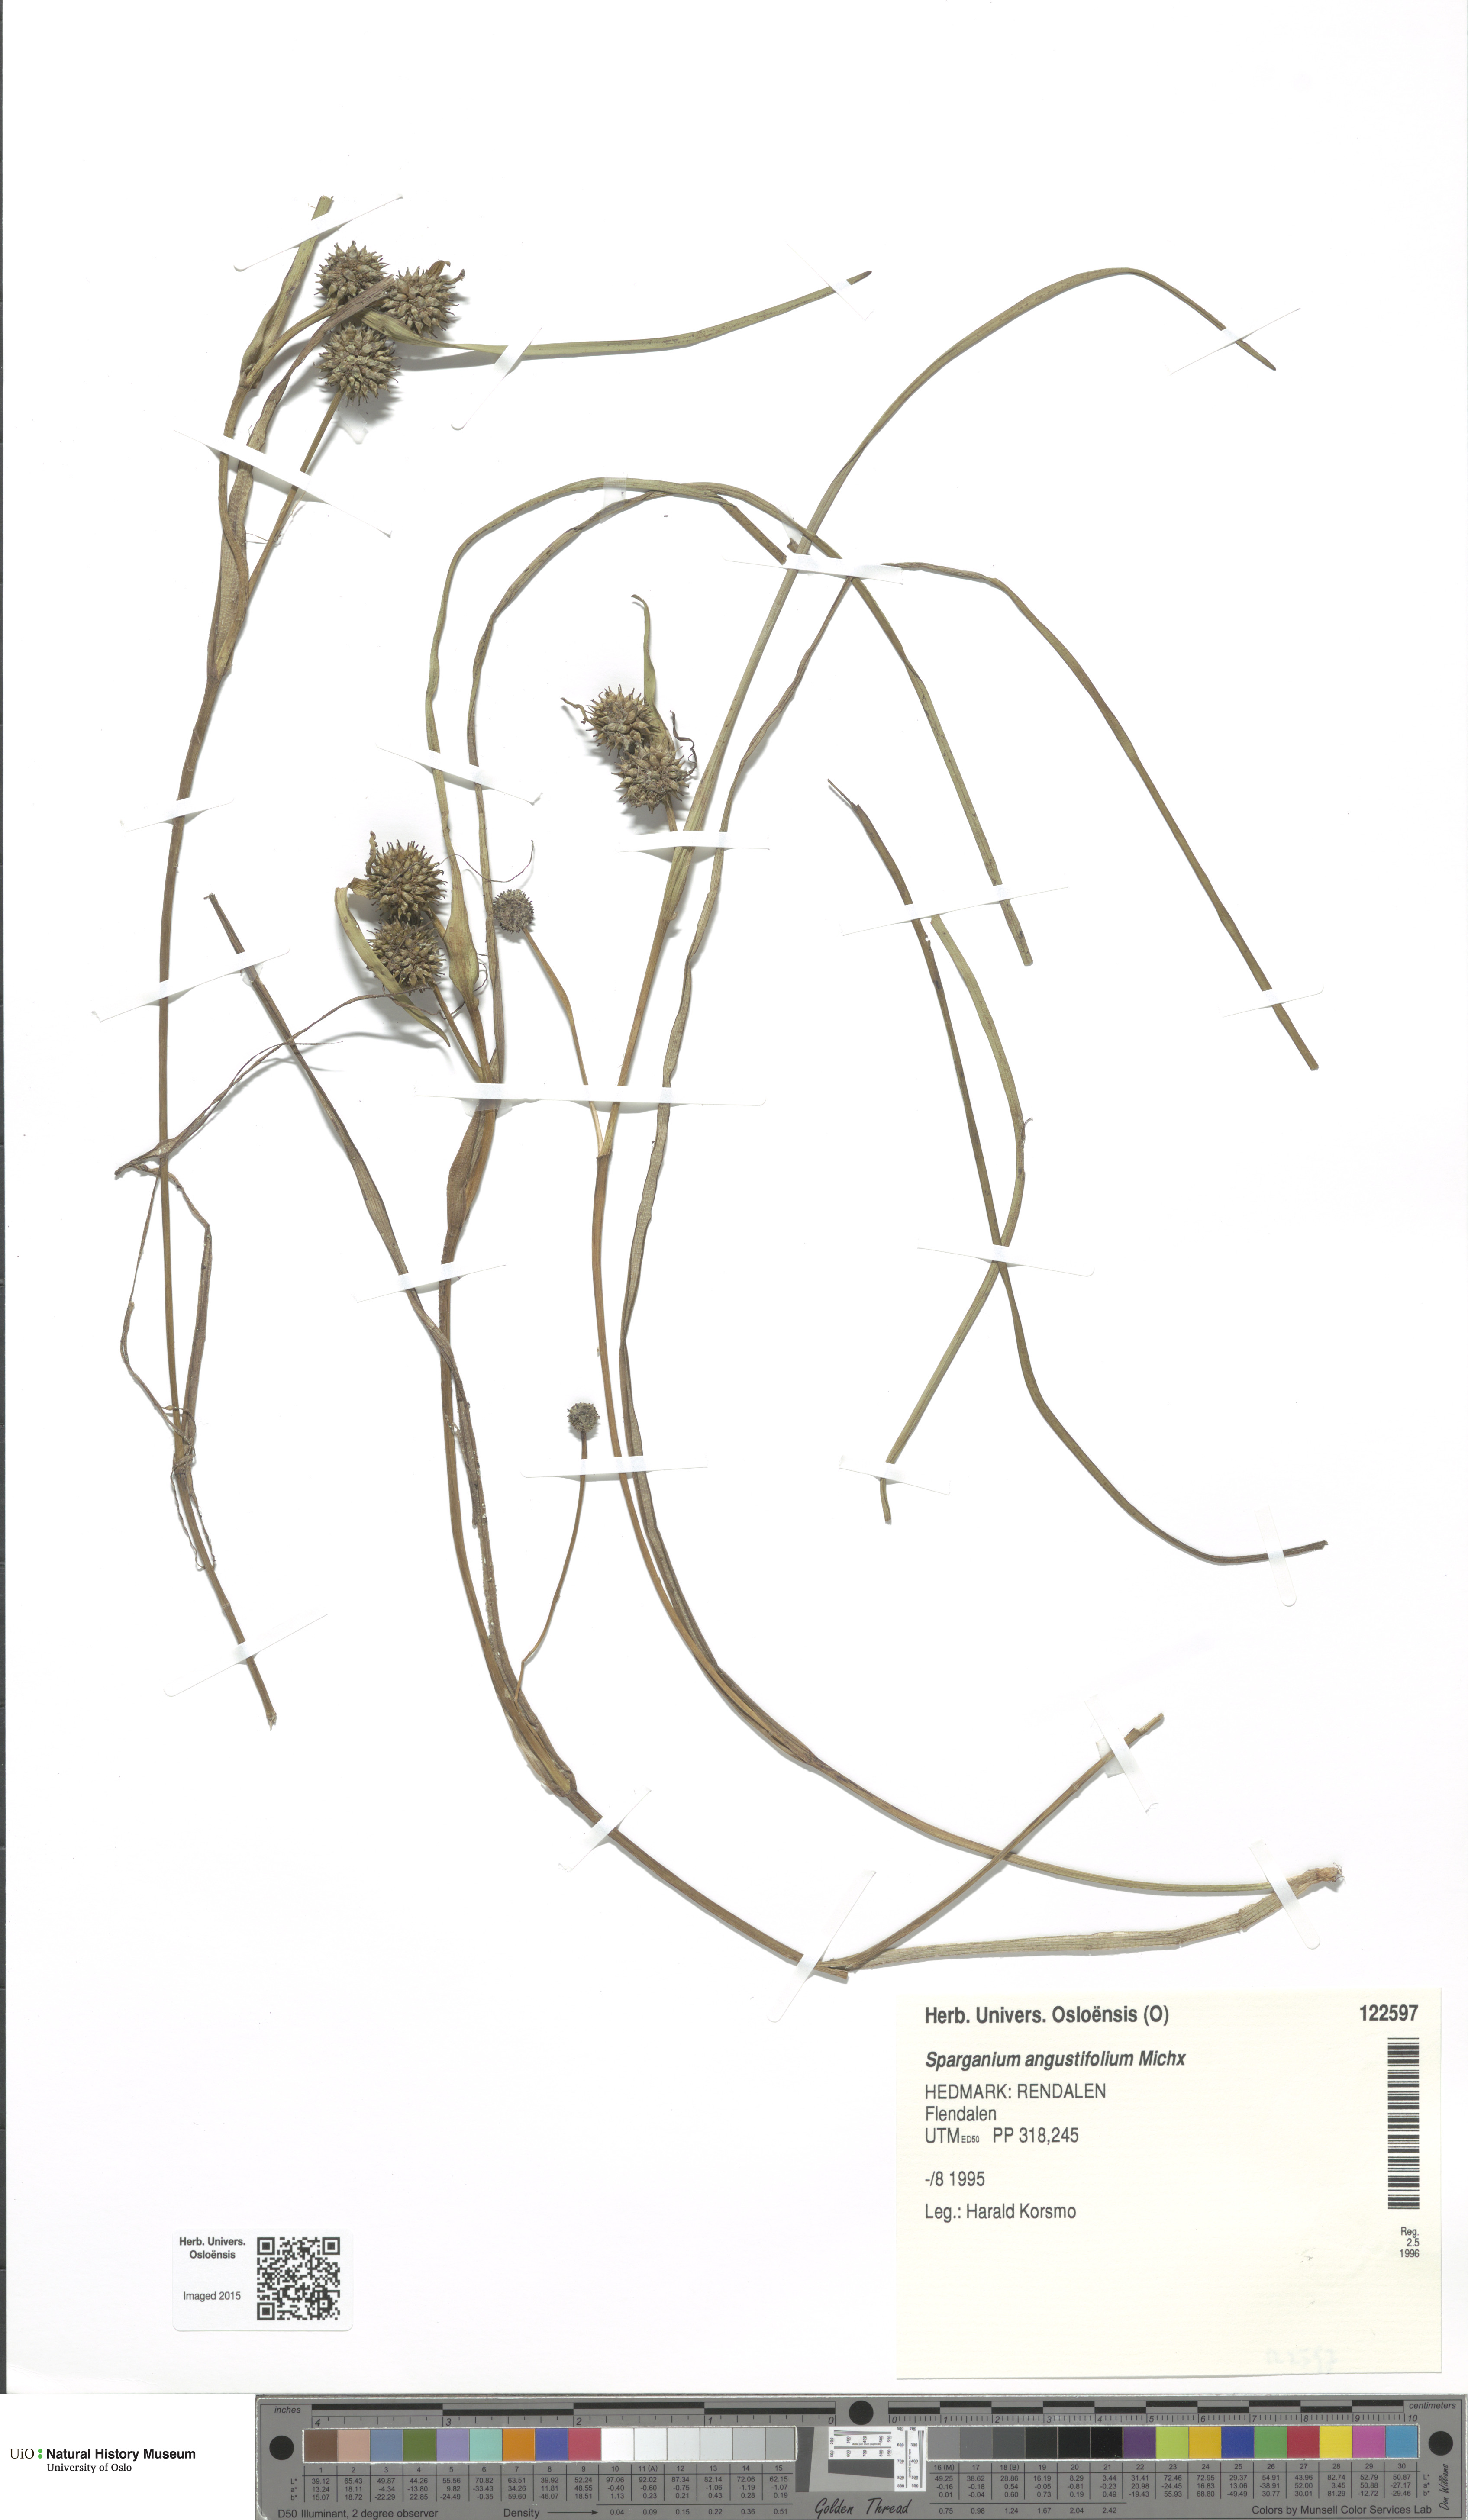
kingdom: Plantae
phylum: Tracheophyta
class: Liliopsida
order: Poales
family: Typhaceae
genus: Sparganium
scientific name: Sparganium angustifolium
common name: Floating bur-reed
